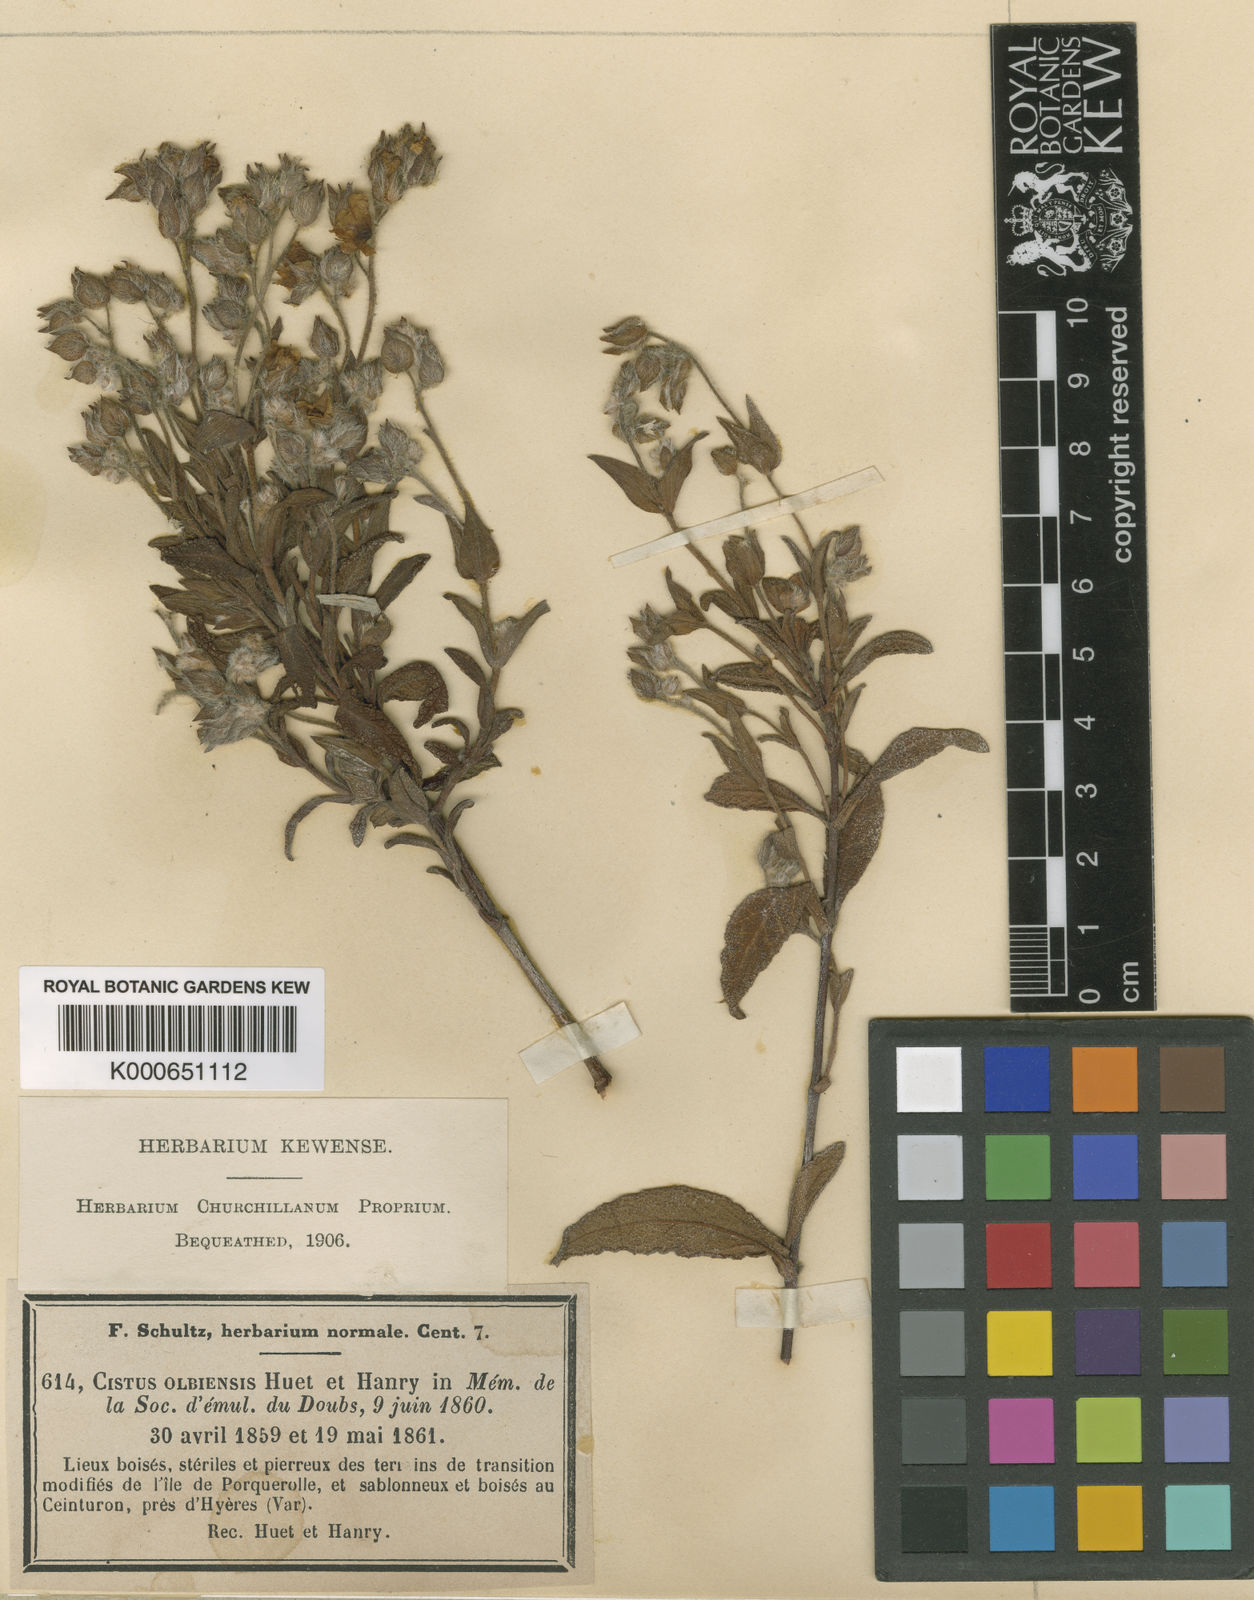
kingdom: Plantae
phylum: Tracheophyta
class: Magnoliopsida
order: Malvales
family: Cistaceae
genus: Cistus
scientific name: Cistus florentinus
